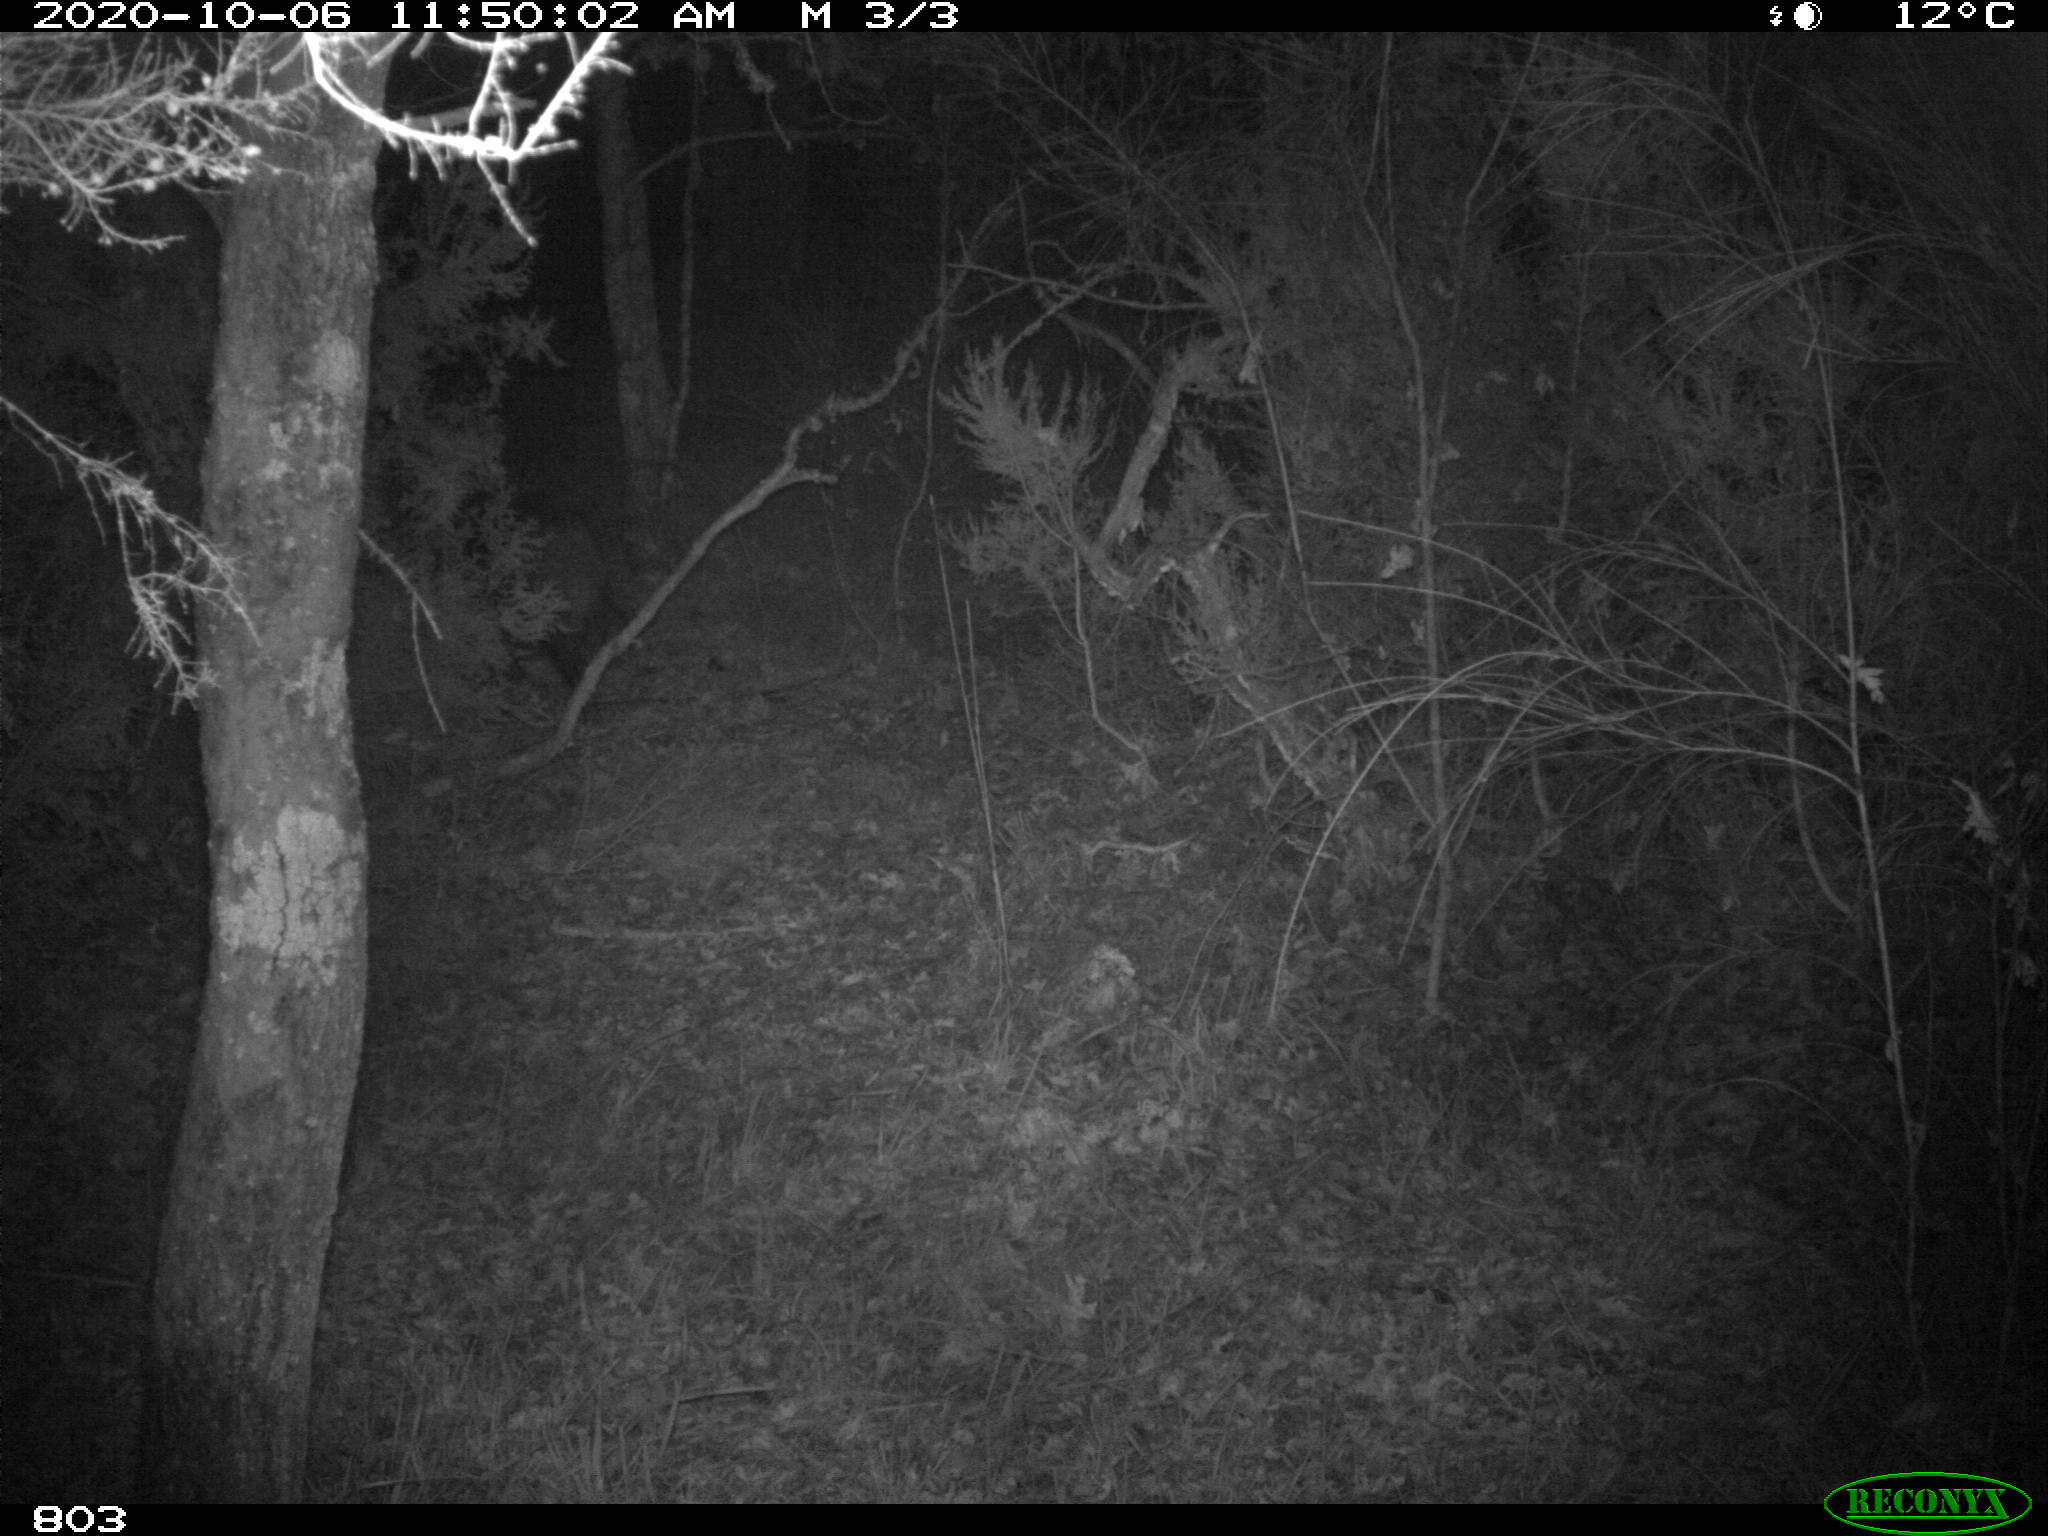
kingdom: Animalia
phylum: Chordata
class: Mammalia
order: Artiodactyla
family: Suidae
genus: Sus
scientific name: Sus scrofa
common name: Wild boar
